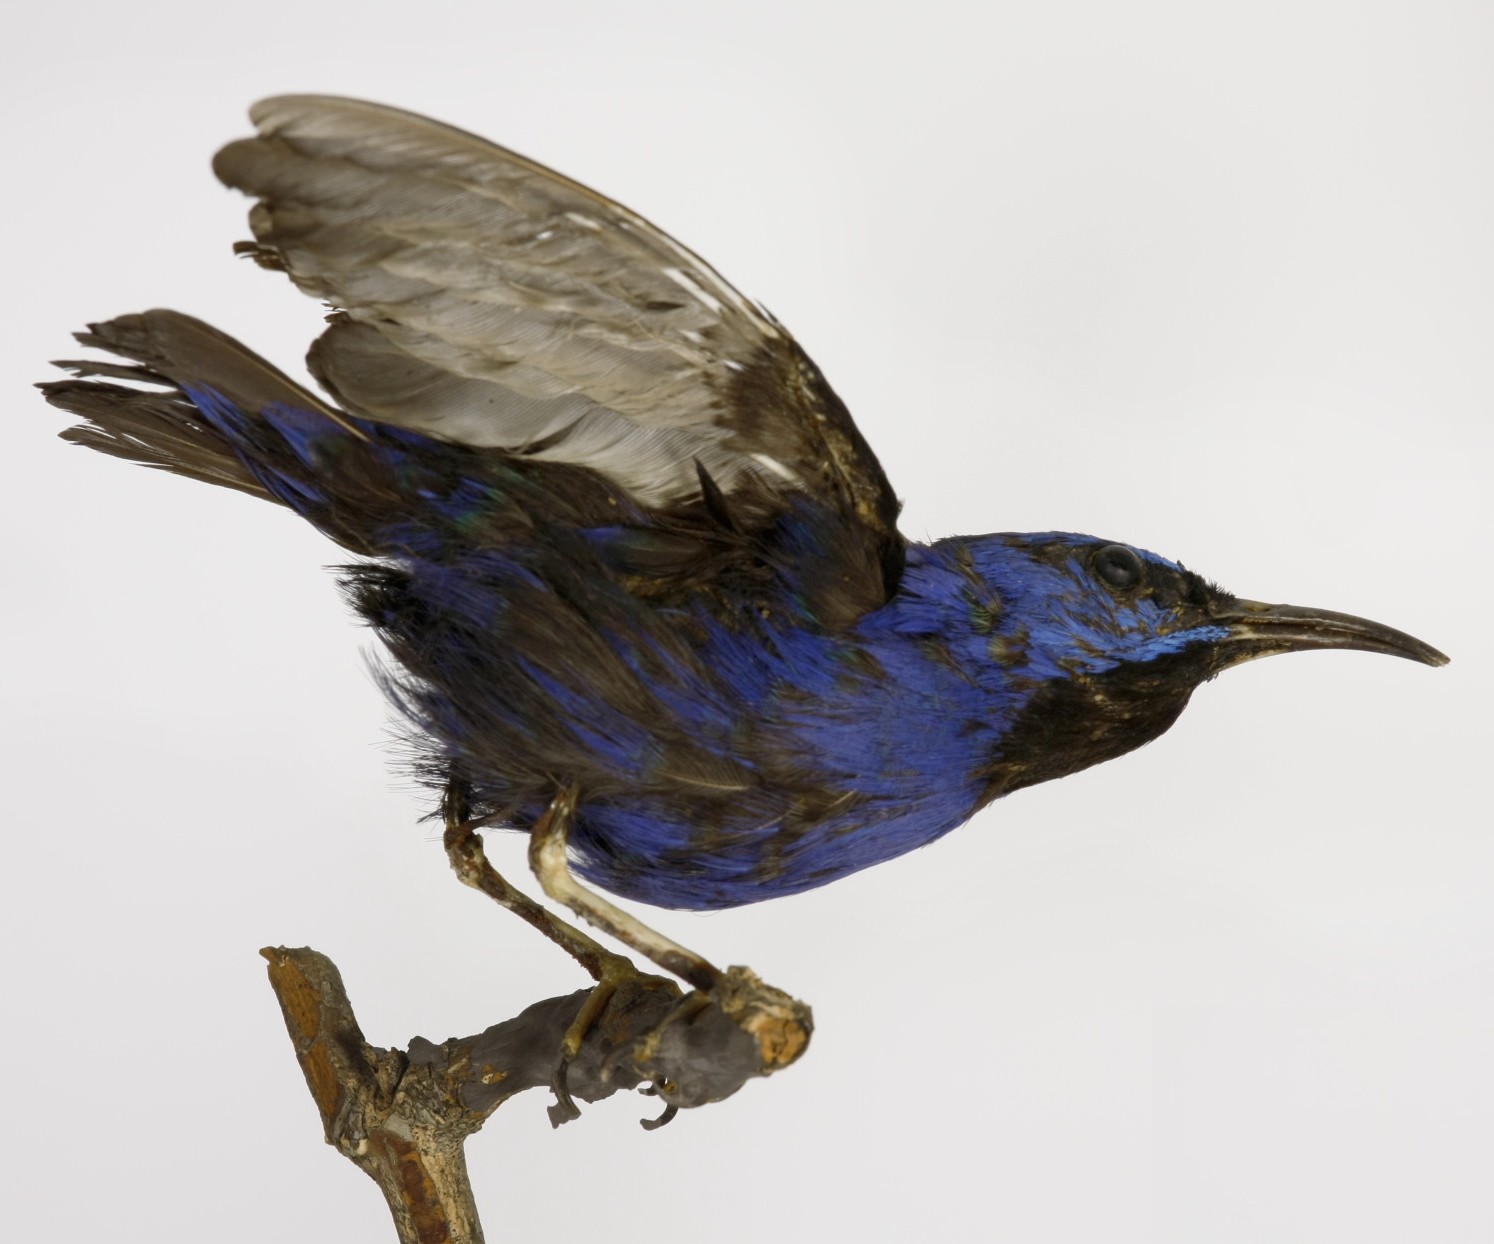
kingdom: Animalia
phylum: Chordata
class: Aves
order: Passeriformes
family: Thraupidae
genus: Cyanerpes
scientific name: Cyanerpes caeruleus
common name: Purple honeycreeper
